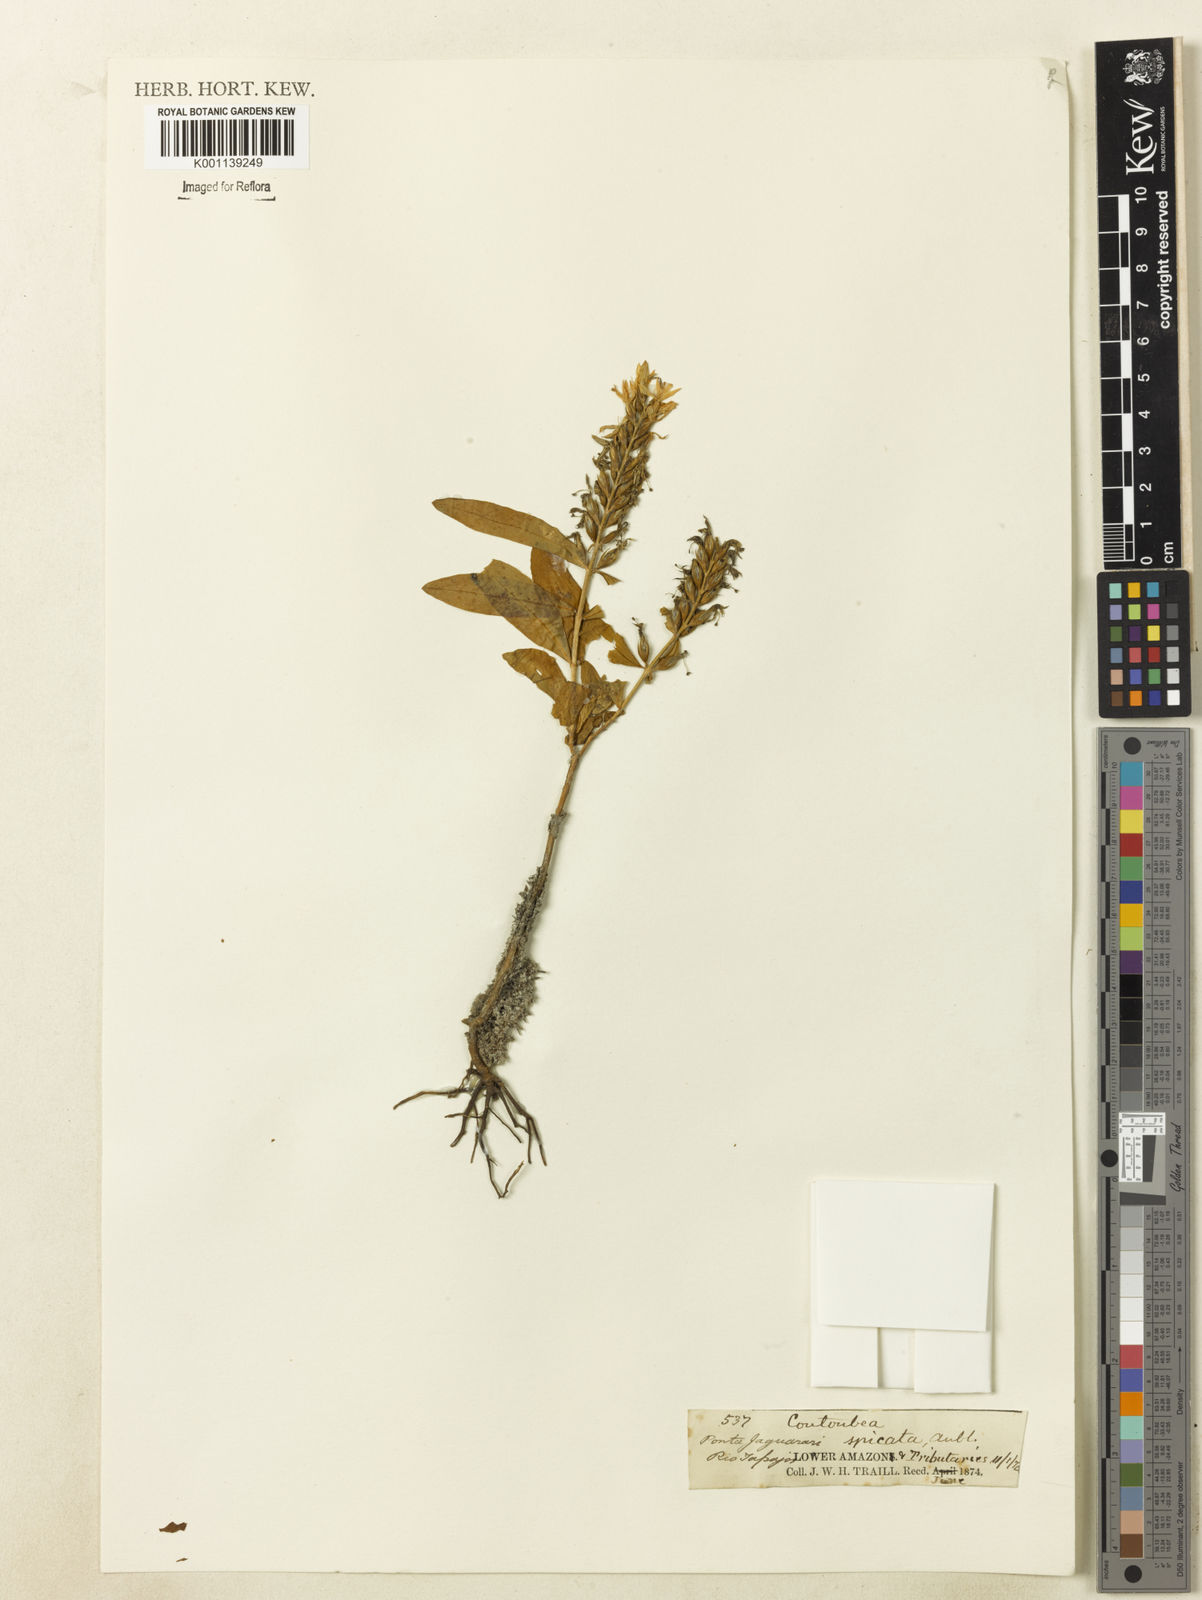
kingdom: Plantae
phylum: Tracheophyta
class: Magnoliopsida
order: Gentianales
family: Gentianaceae
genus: Coutoubea
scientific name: Coutoubea spicata
